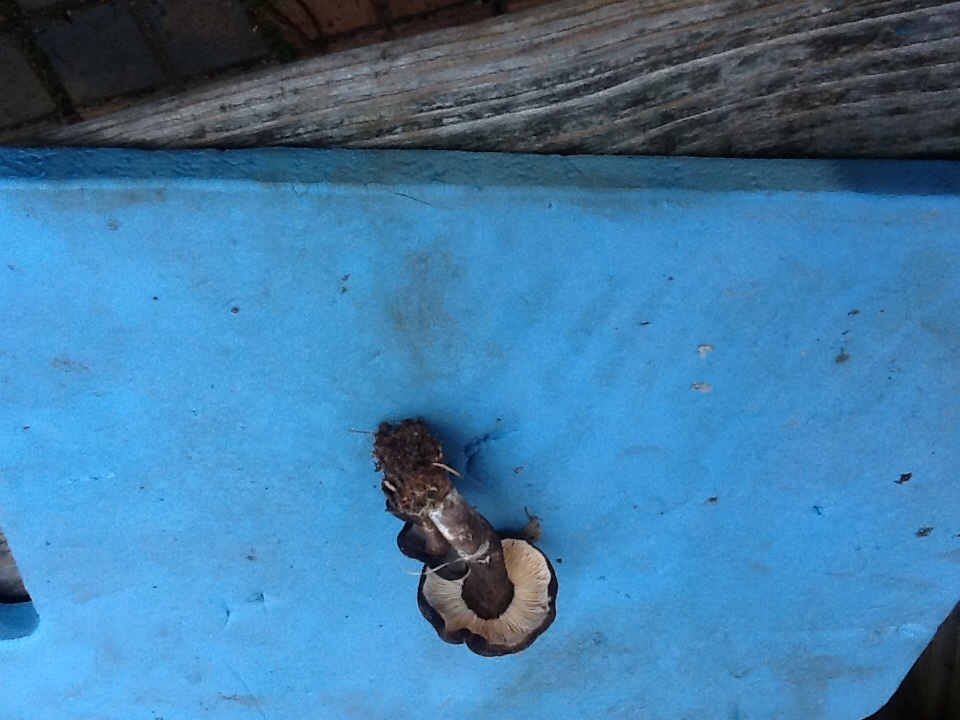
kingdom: Fungi
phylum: Basidiomycota
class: Agaricomycetes
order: Russulales
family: Russulaceae
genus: Lactarius
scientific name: Lactarius lignyotus
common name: fløjls-mælkehat
